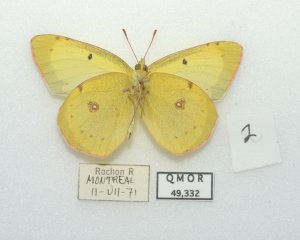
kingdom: Animalia
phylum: Arthropoda
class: Insecta
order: Lepidoptera
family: Pieridae
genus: Colias
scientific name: Colias philodice
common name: Clouded Sulphur
